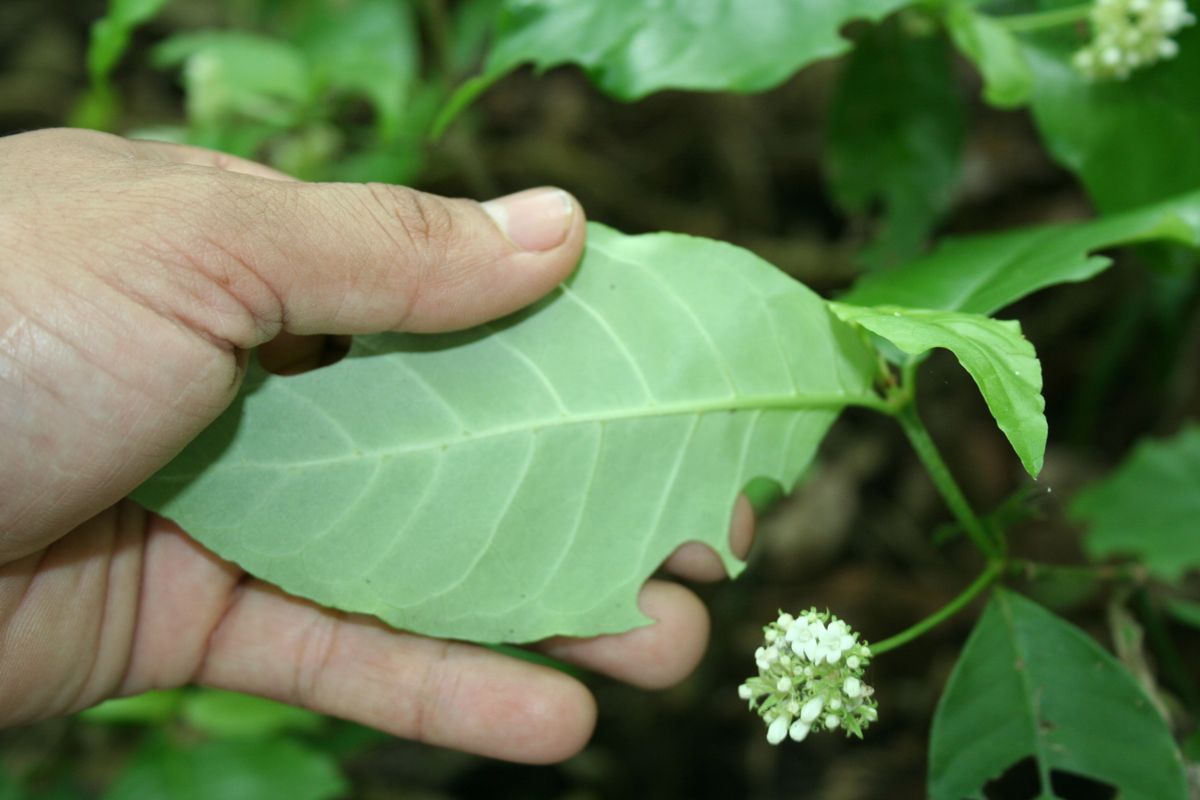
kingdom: Plantae
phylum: Tracheophyta
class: Magnoliopsida
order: Gentianales
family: Rubiaceae
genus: Psychotria
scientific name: Psychotria horizontalis
